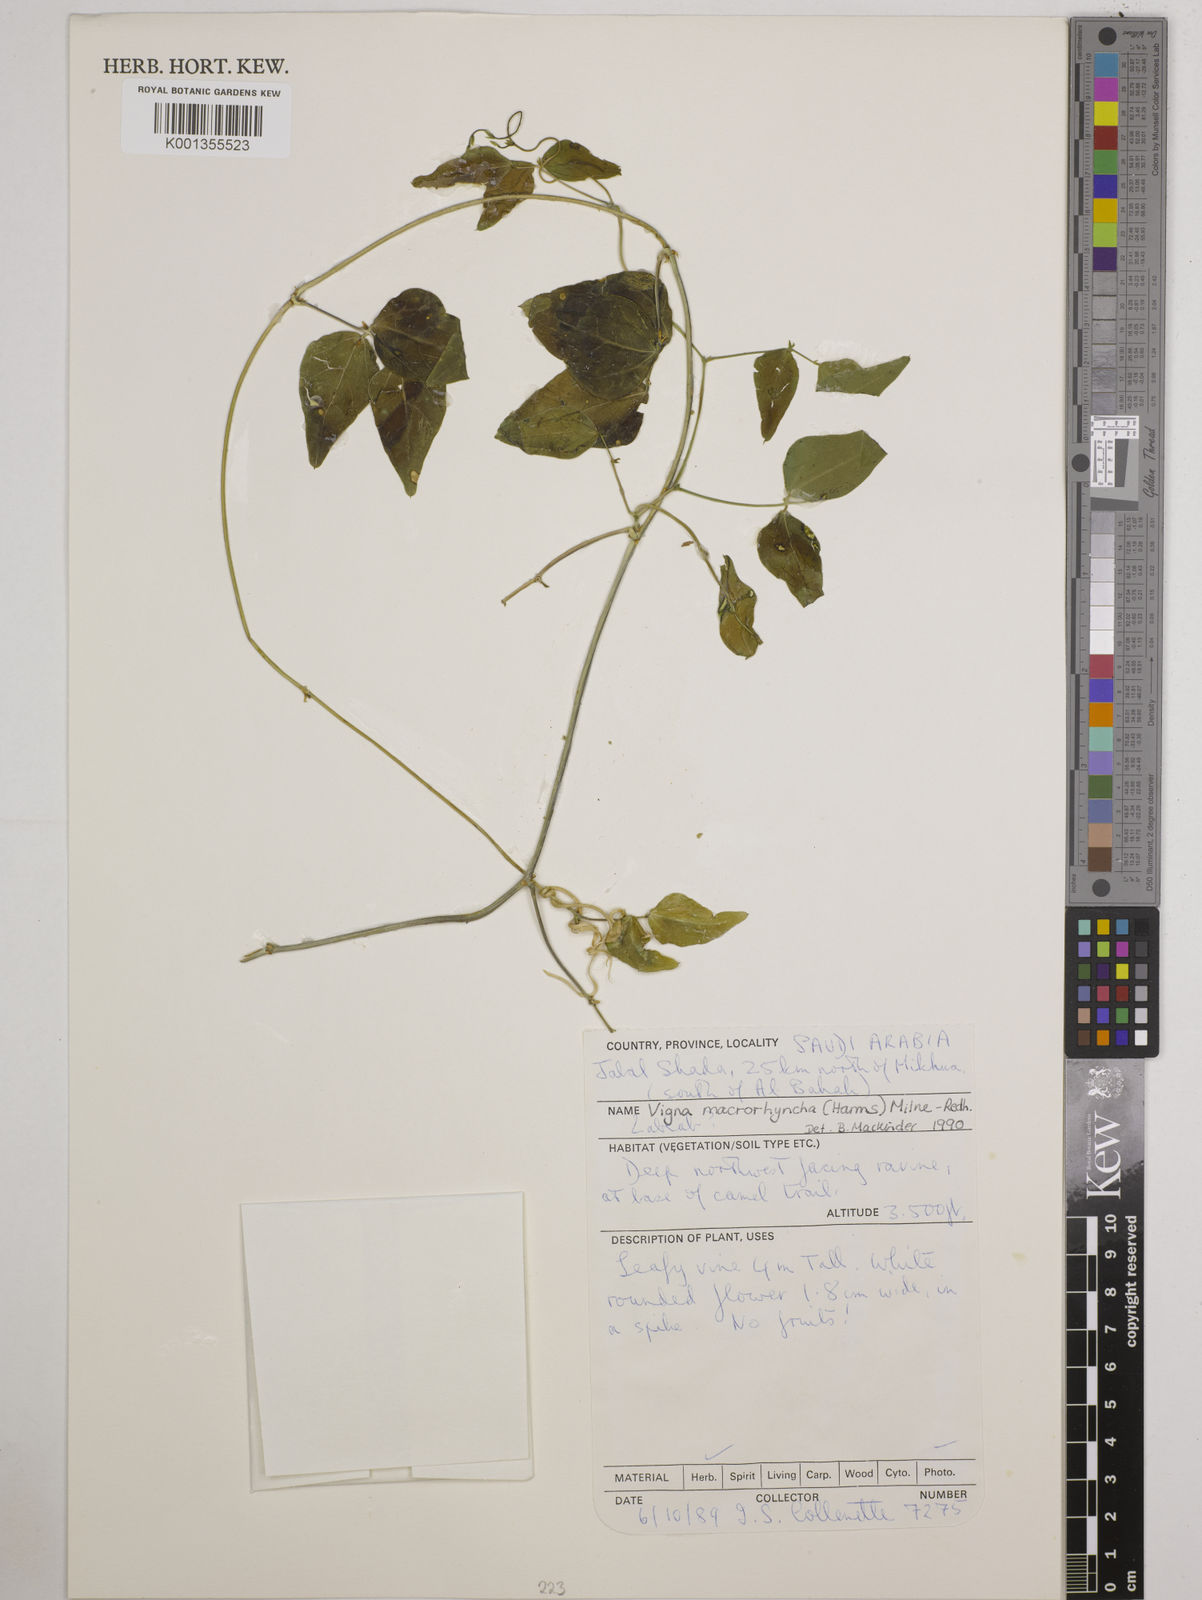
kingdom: Plantae
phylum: Tracheophyta
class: Magnoliopsida
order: Fabales
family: Fabaceae
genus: Wajira
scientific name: Wajira grahamiana
